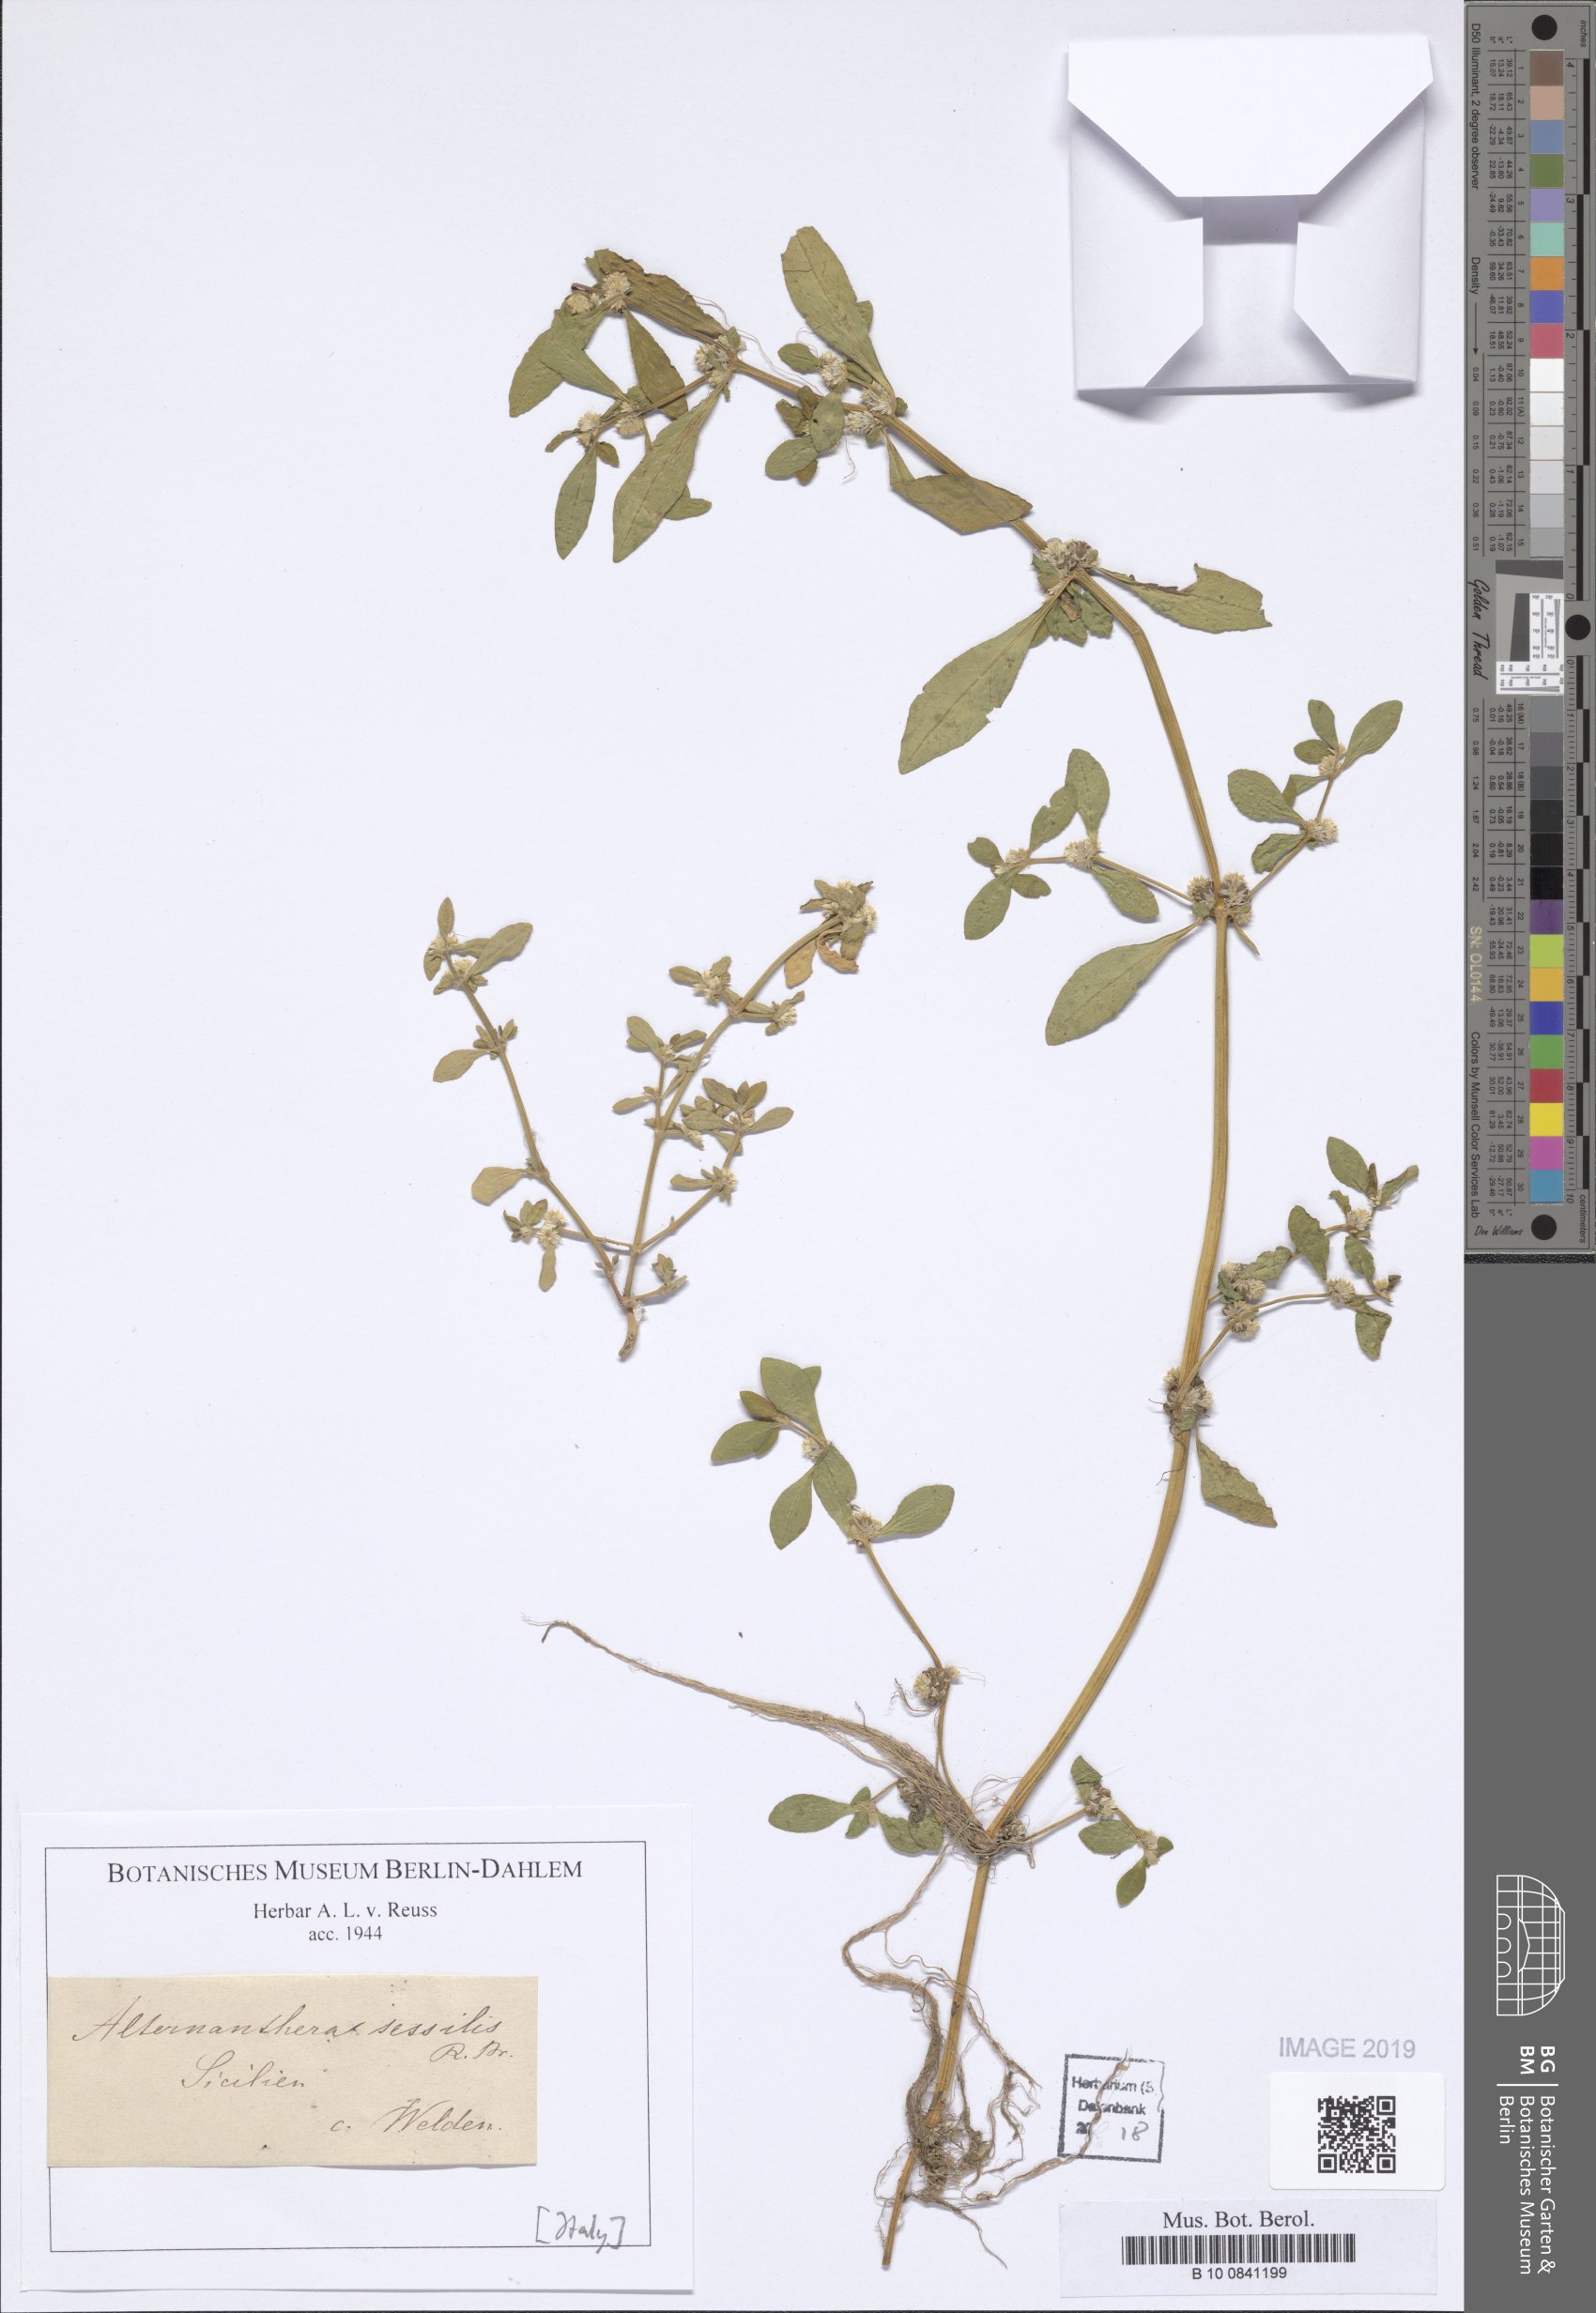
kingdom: Plantae
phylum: Tracheophyta
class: Magnoliopsida
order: Caryophyllales
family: Amaranthaceae
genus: Alternanthera
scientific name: Alternanthera sessilis
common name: Sessile joyweed
